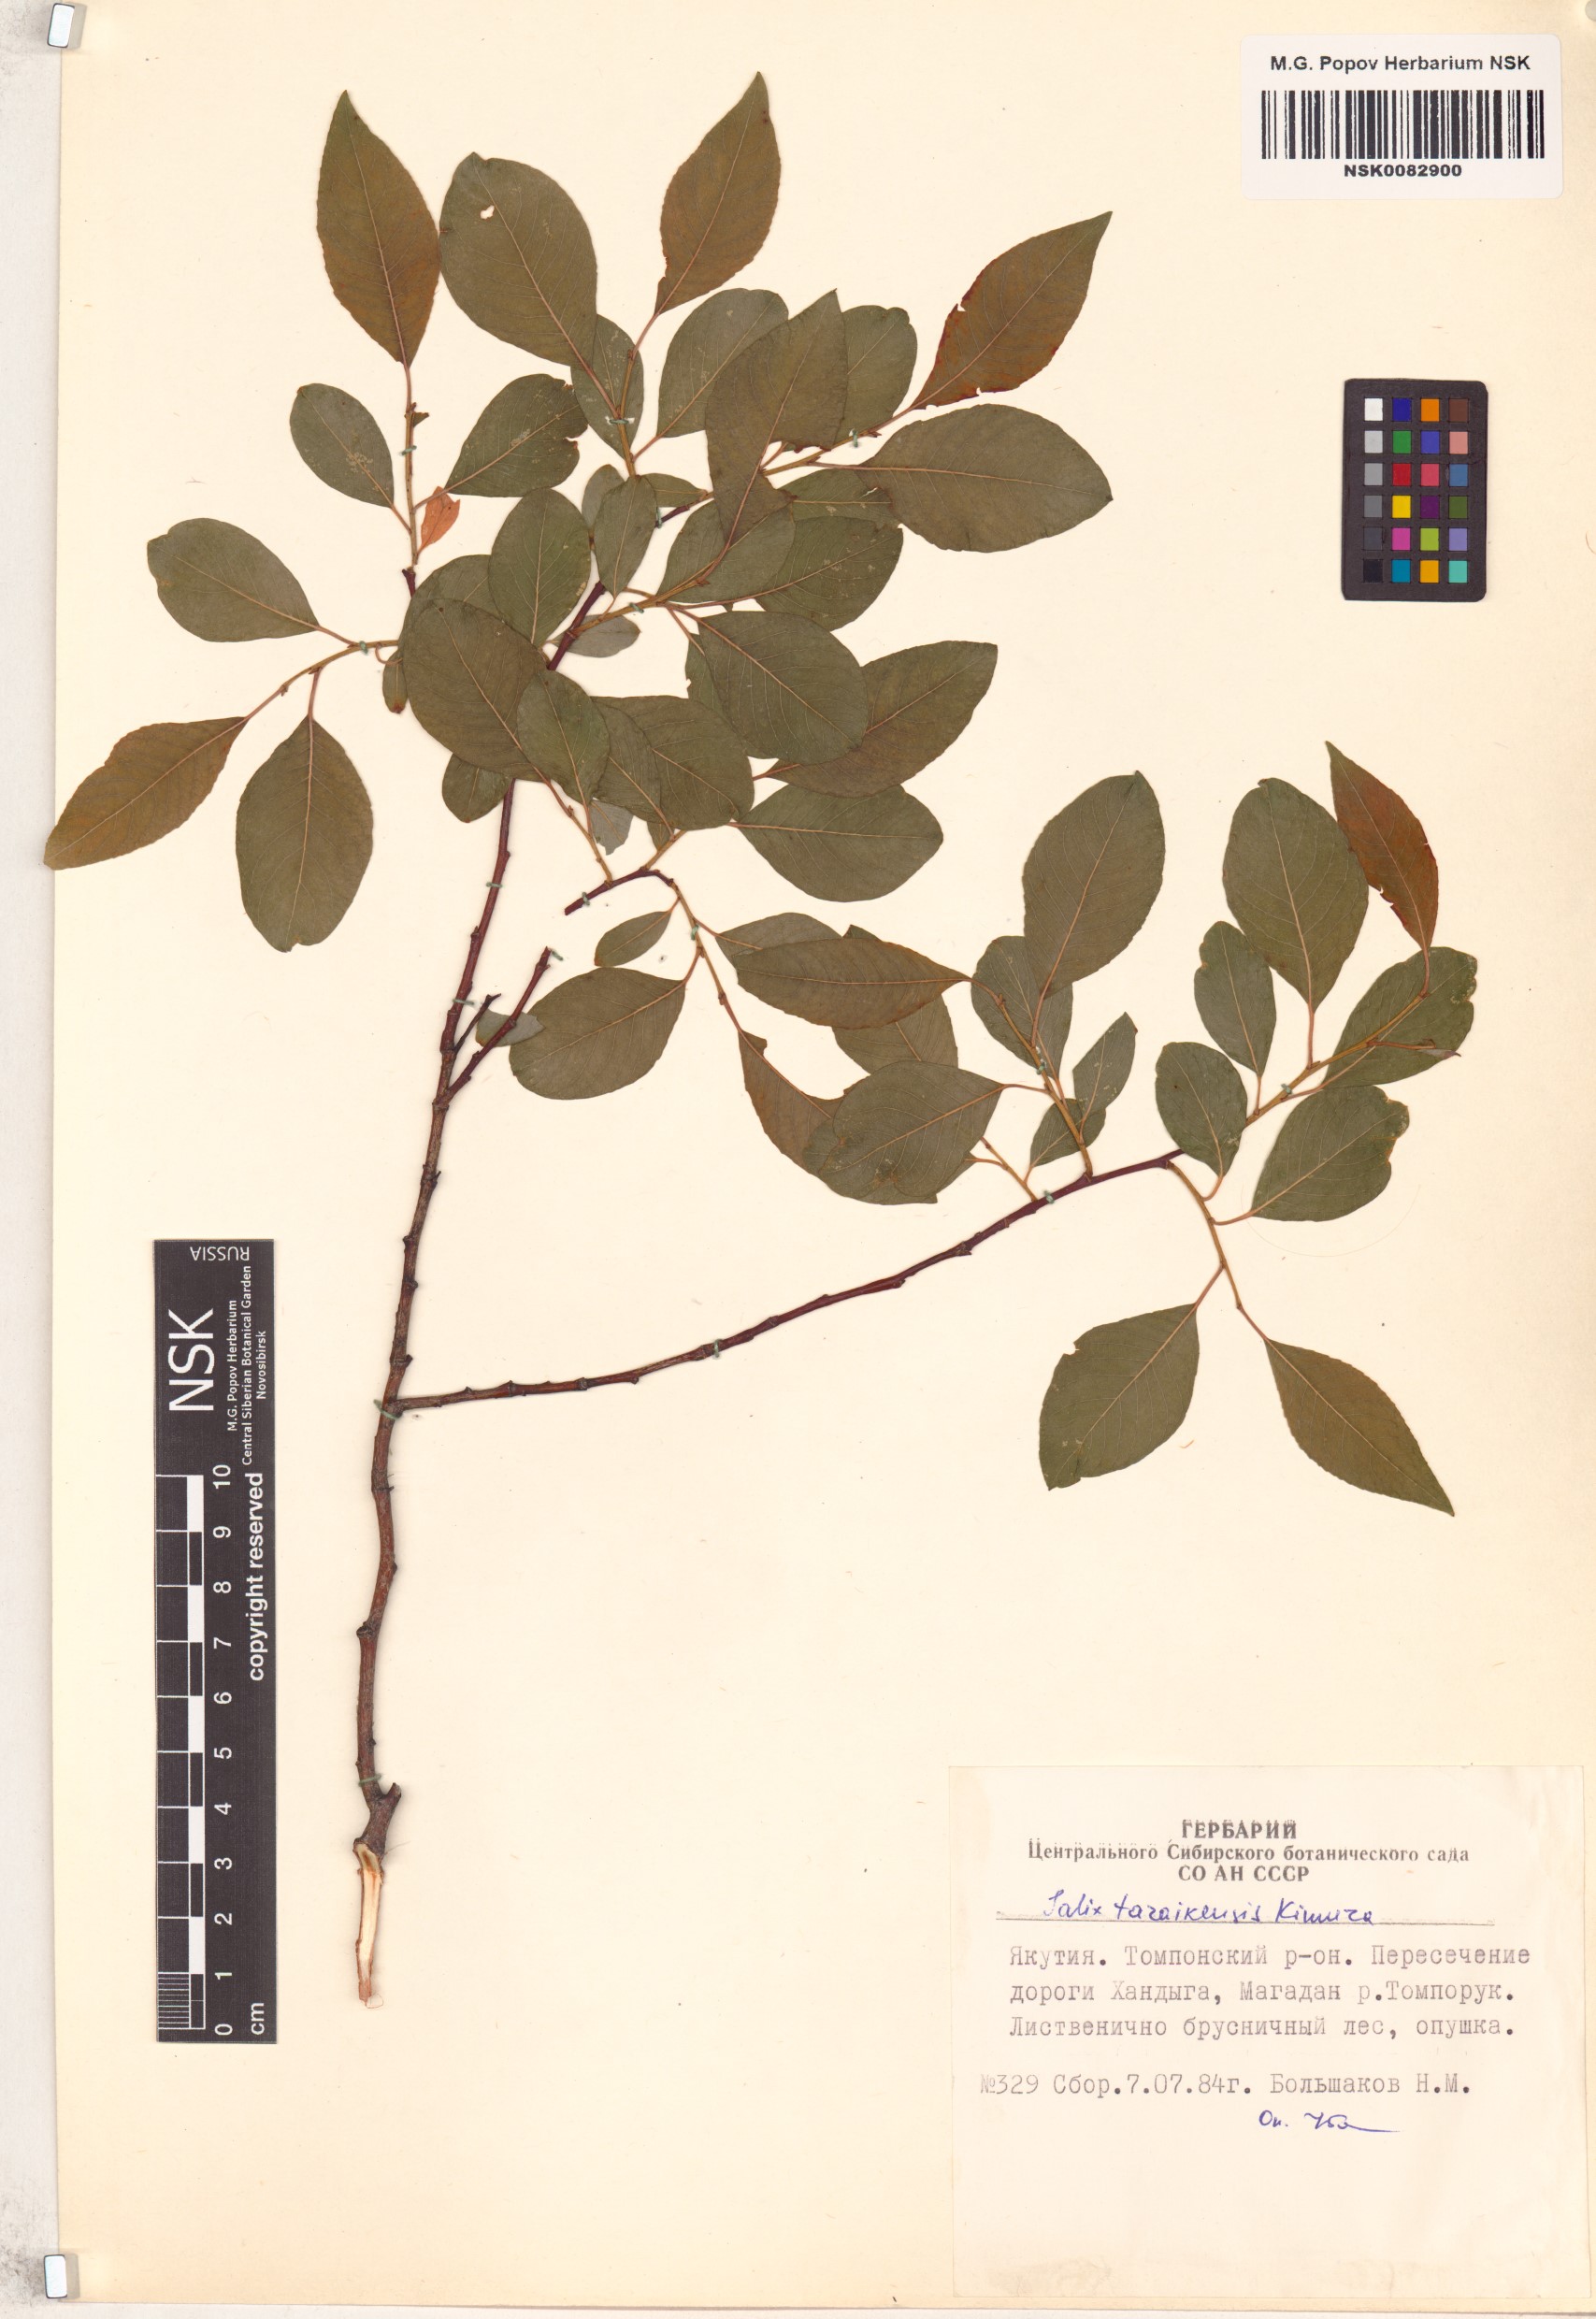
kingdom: Plantae
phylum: Tracheophyta
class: Magnoliopsida
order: Malpighiales
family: Salicaceae
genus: Salix
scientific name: Salix taraikensis
